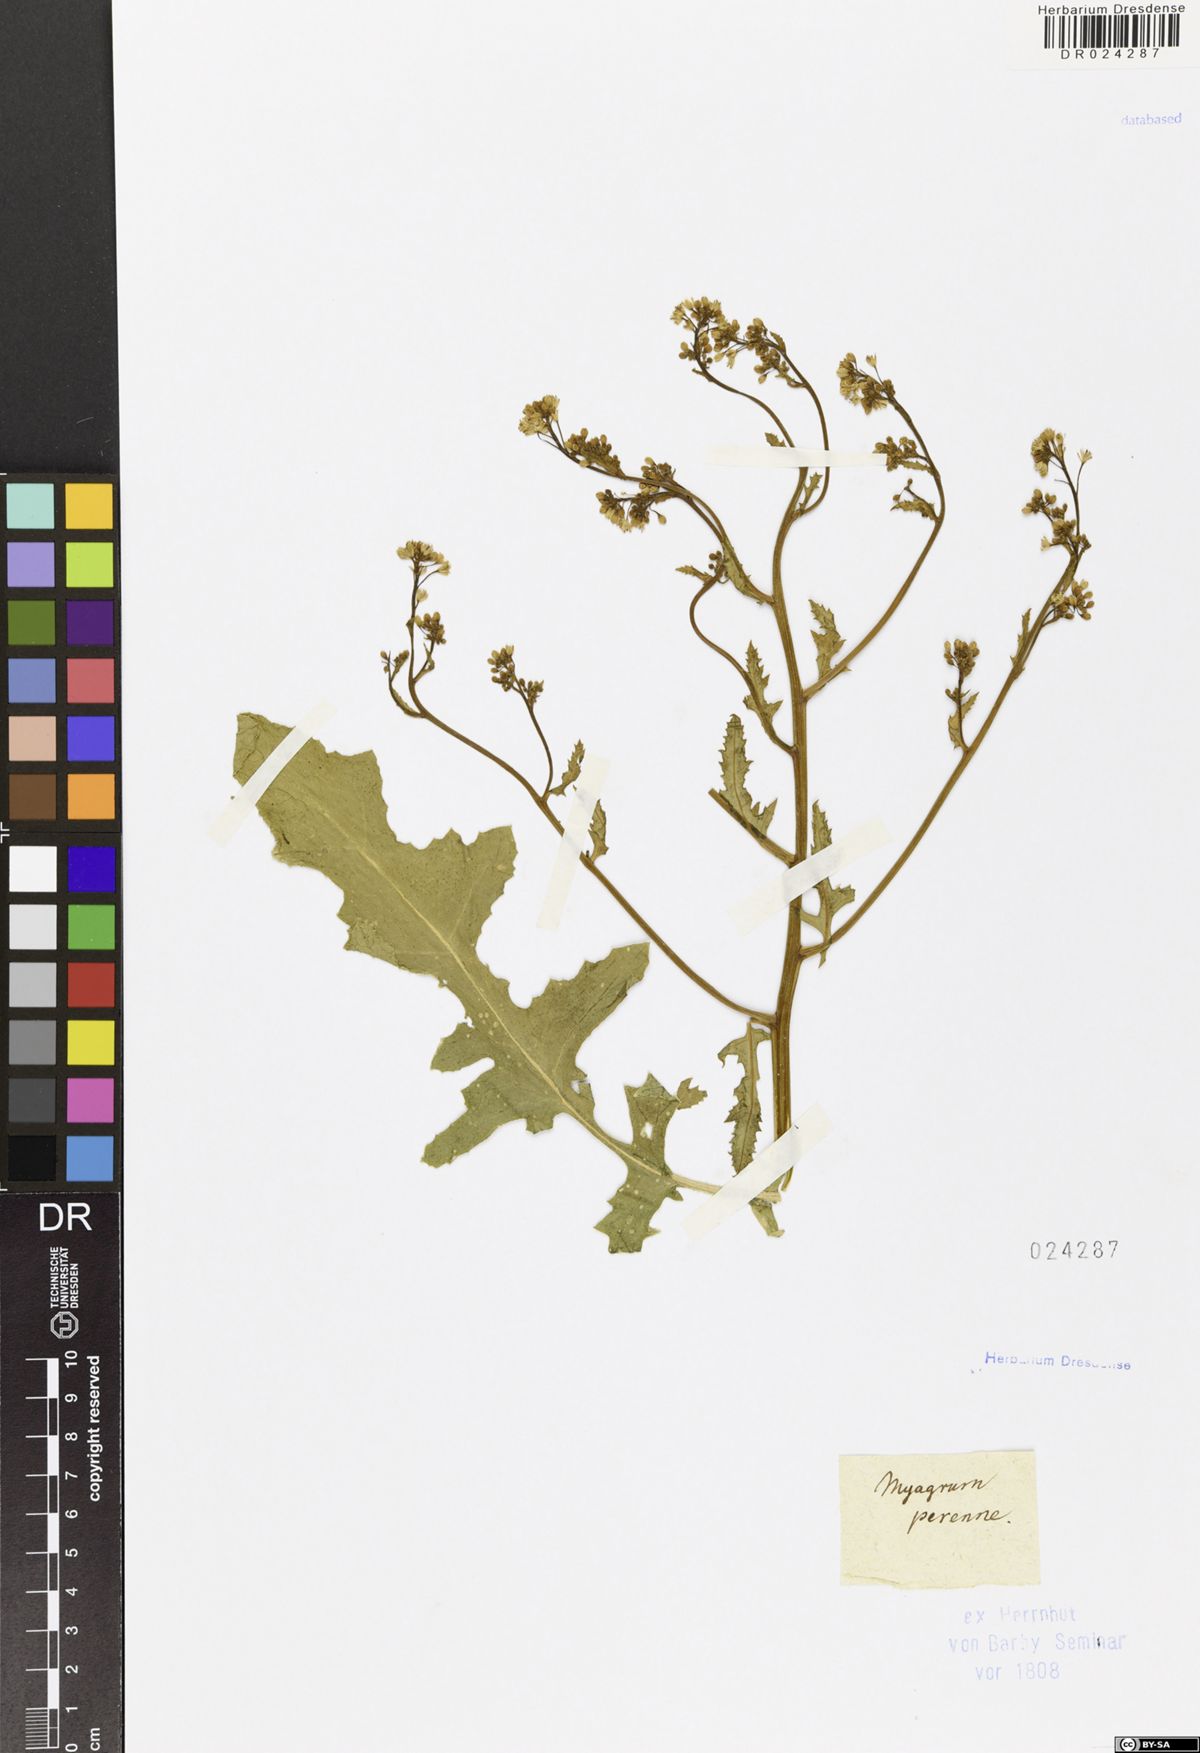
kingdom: Plantae
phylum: Tracheophyta
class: Magnoliopsida
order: Brassicales
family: Brassicaceae
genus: Rapistrum
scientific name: Rapistrum perenne
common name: Steppe cabbage
